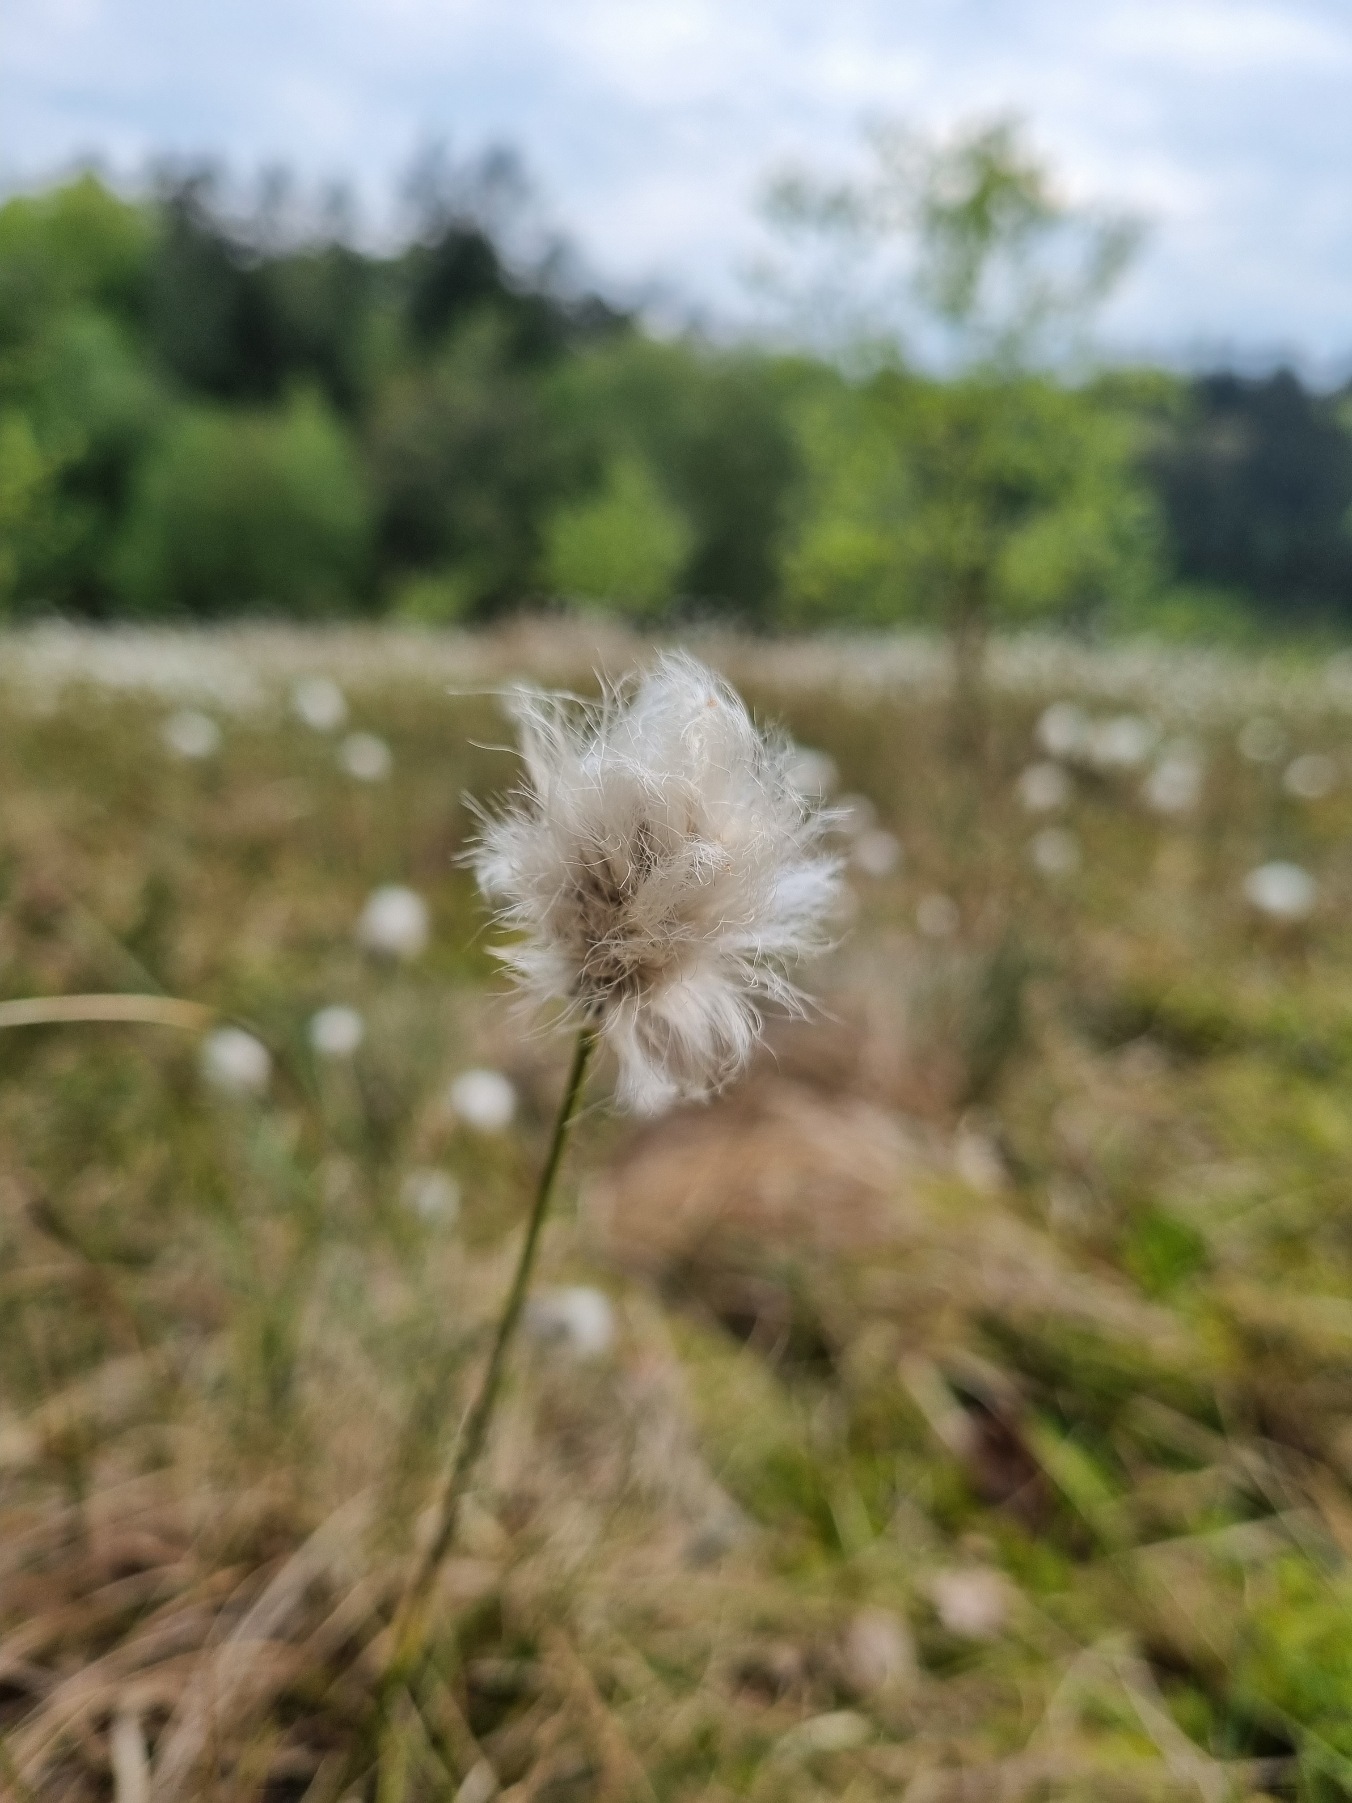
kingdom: Plantae
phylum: Tracheophyta
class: Liliopsida
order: Poales
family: Cyperaceae
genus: Eriophorum
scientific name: Eriophorum vaginatum
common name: Tue-kæruld
